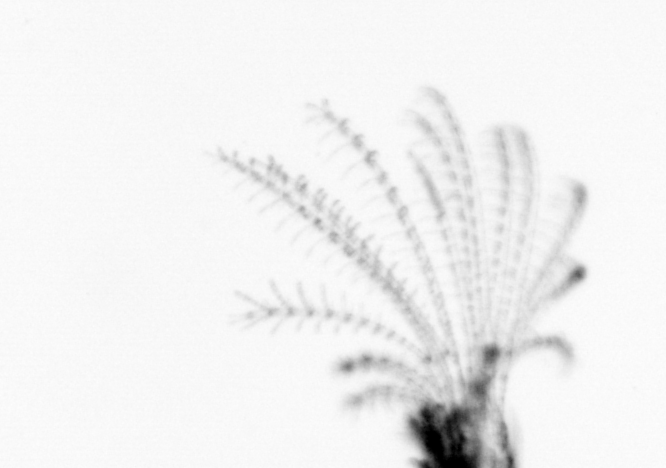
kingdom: Animalia
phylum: Arthropoda
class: Maxillopoda
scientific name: Maxillopoda
